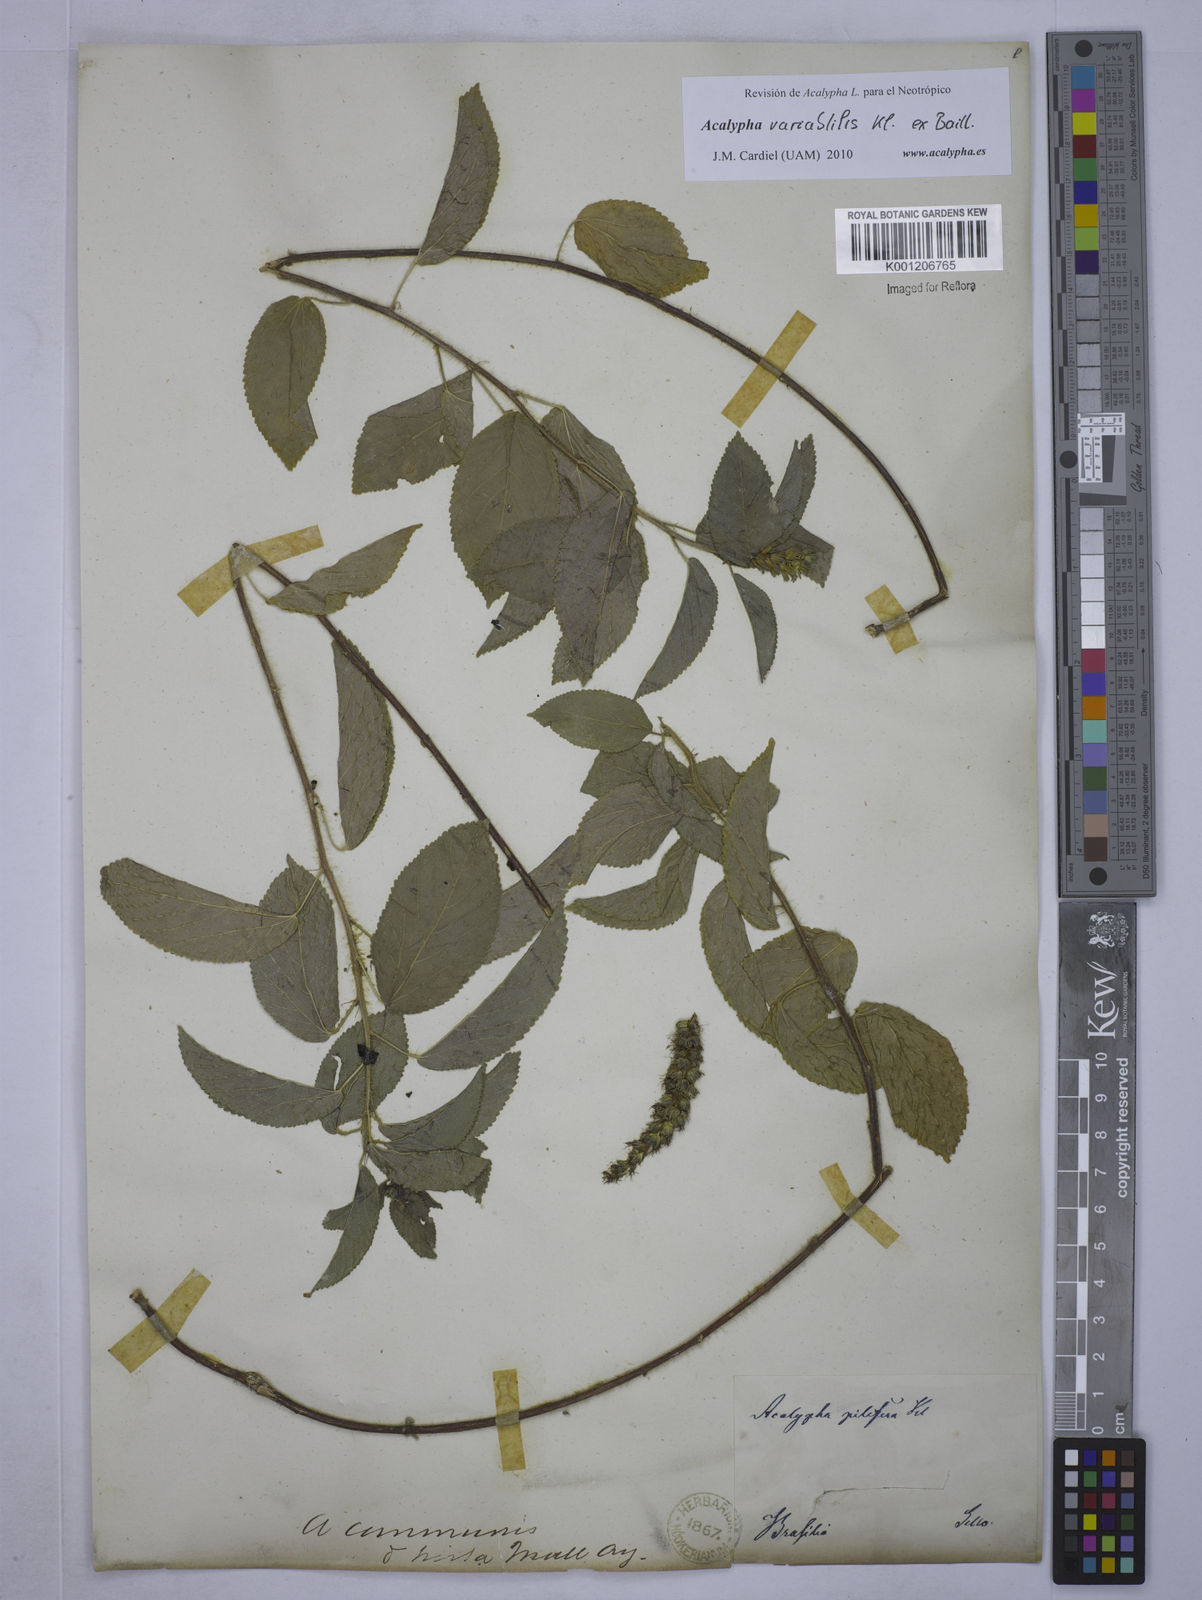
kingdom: Plantae
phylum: Tracheophyta
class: Magnoliopsida
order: Malpighiales
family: Euphorbiaceae
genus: Acalypha
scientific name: Acalypha variabilis
